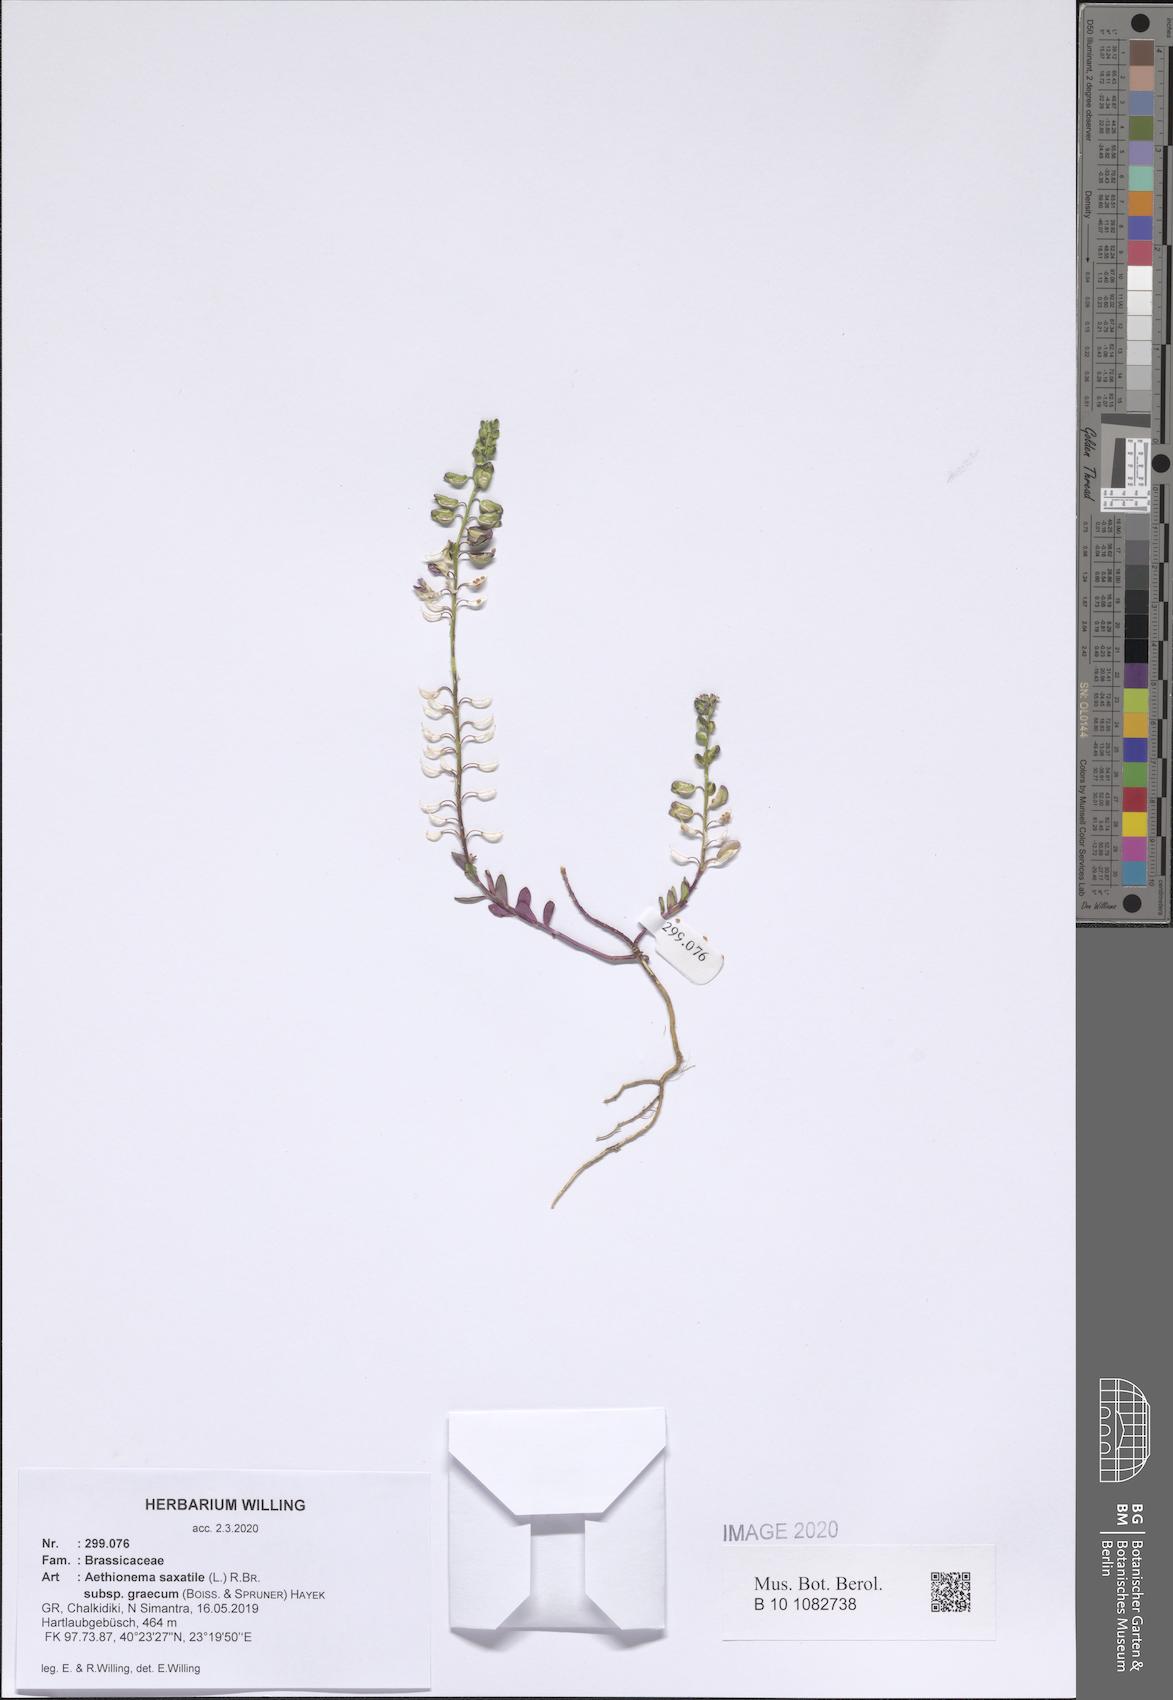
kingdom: Plantae
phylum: Tracheophyta
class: Magnoliopsida
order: Brassicales
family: Brassicaceae
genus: Aethionema
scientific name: Aethionema saxatile
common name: Burnt candytuft
